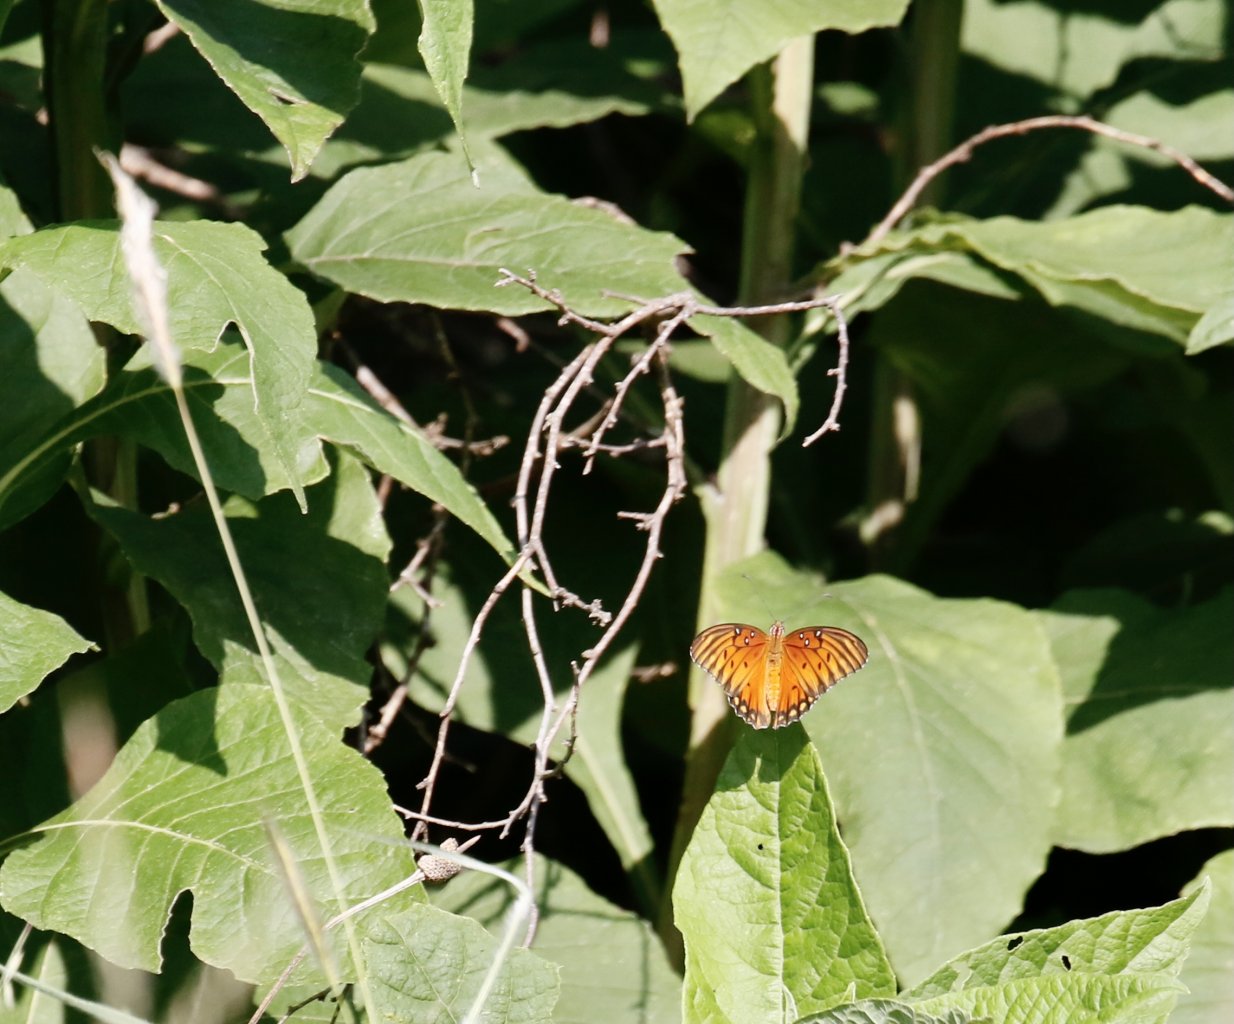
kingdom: Animalia
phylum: Arthropoda
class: Insecta
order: Lepidoptera
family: Nymphalidae
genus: Dione
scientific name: Dione vanillae
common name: Gulf Fritillary
